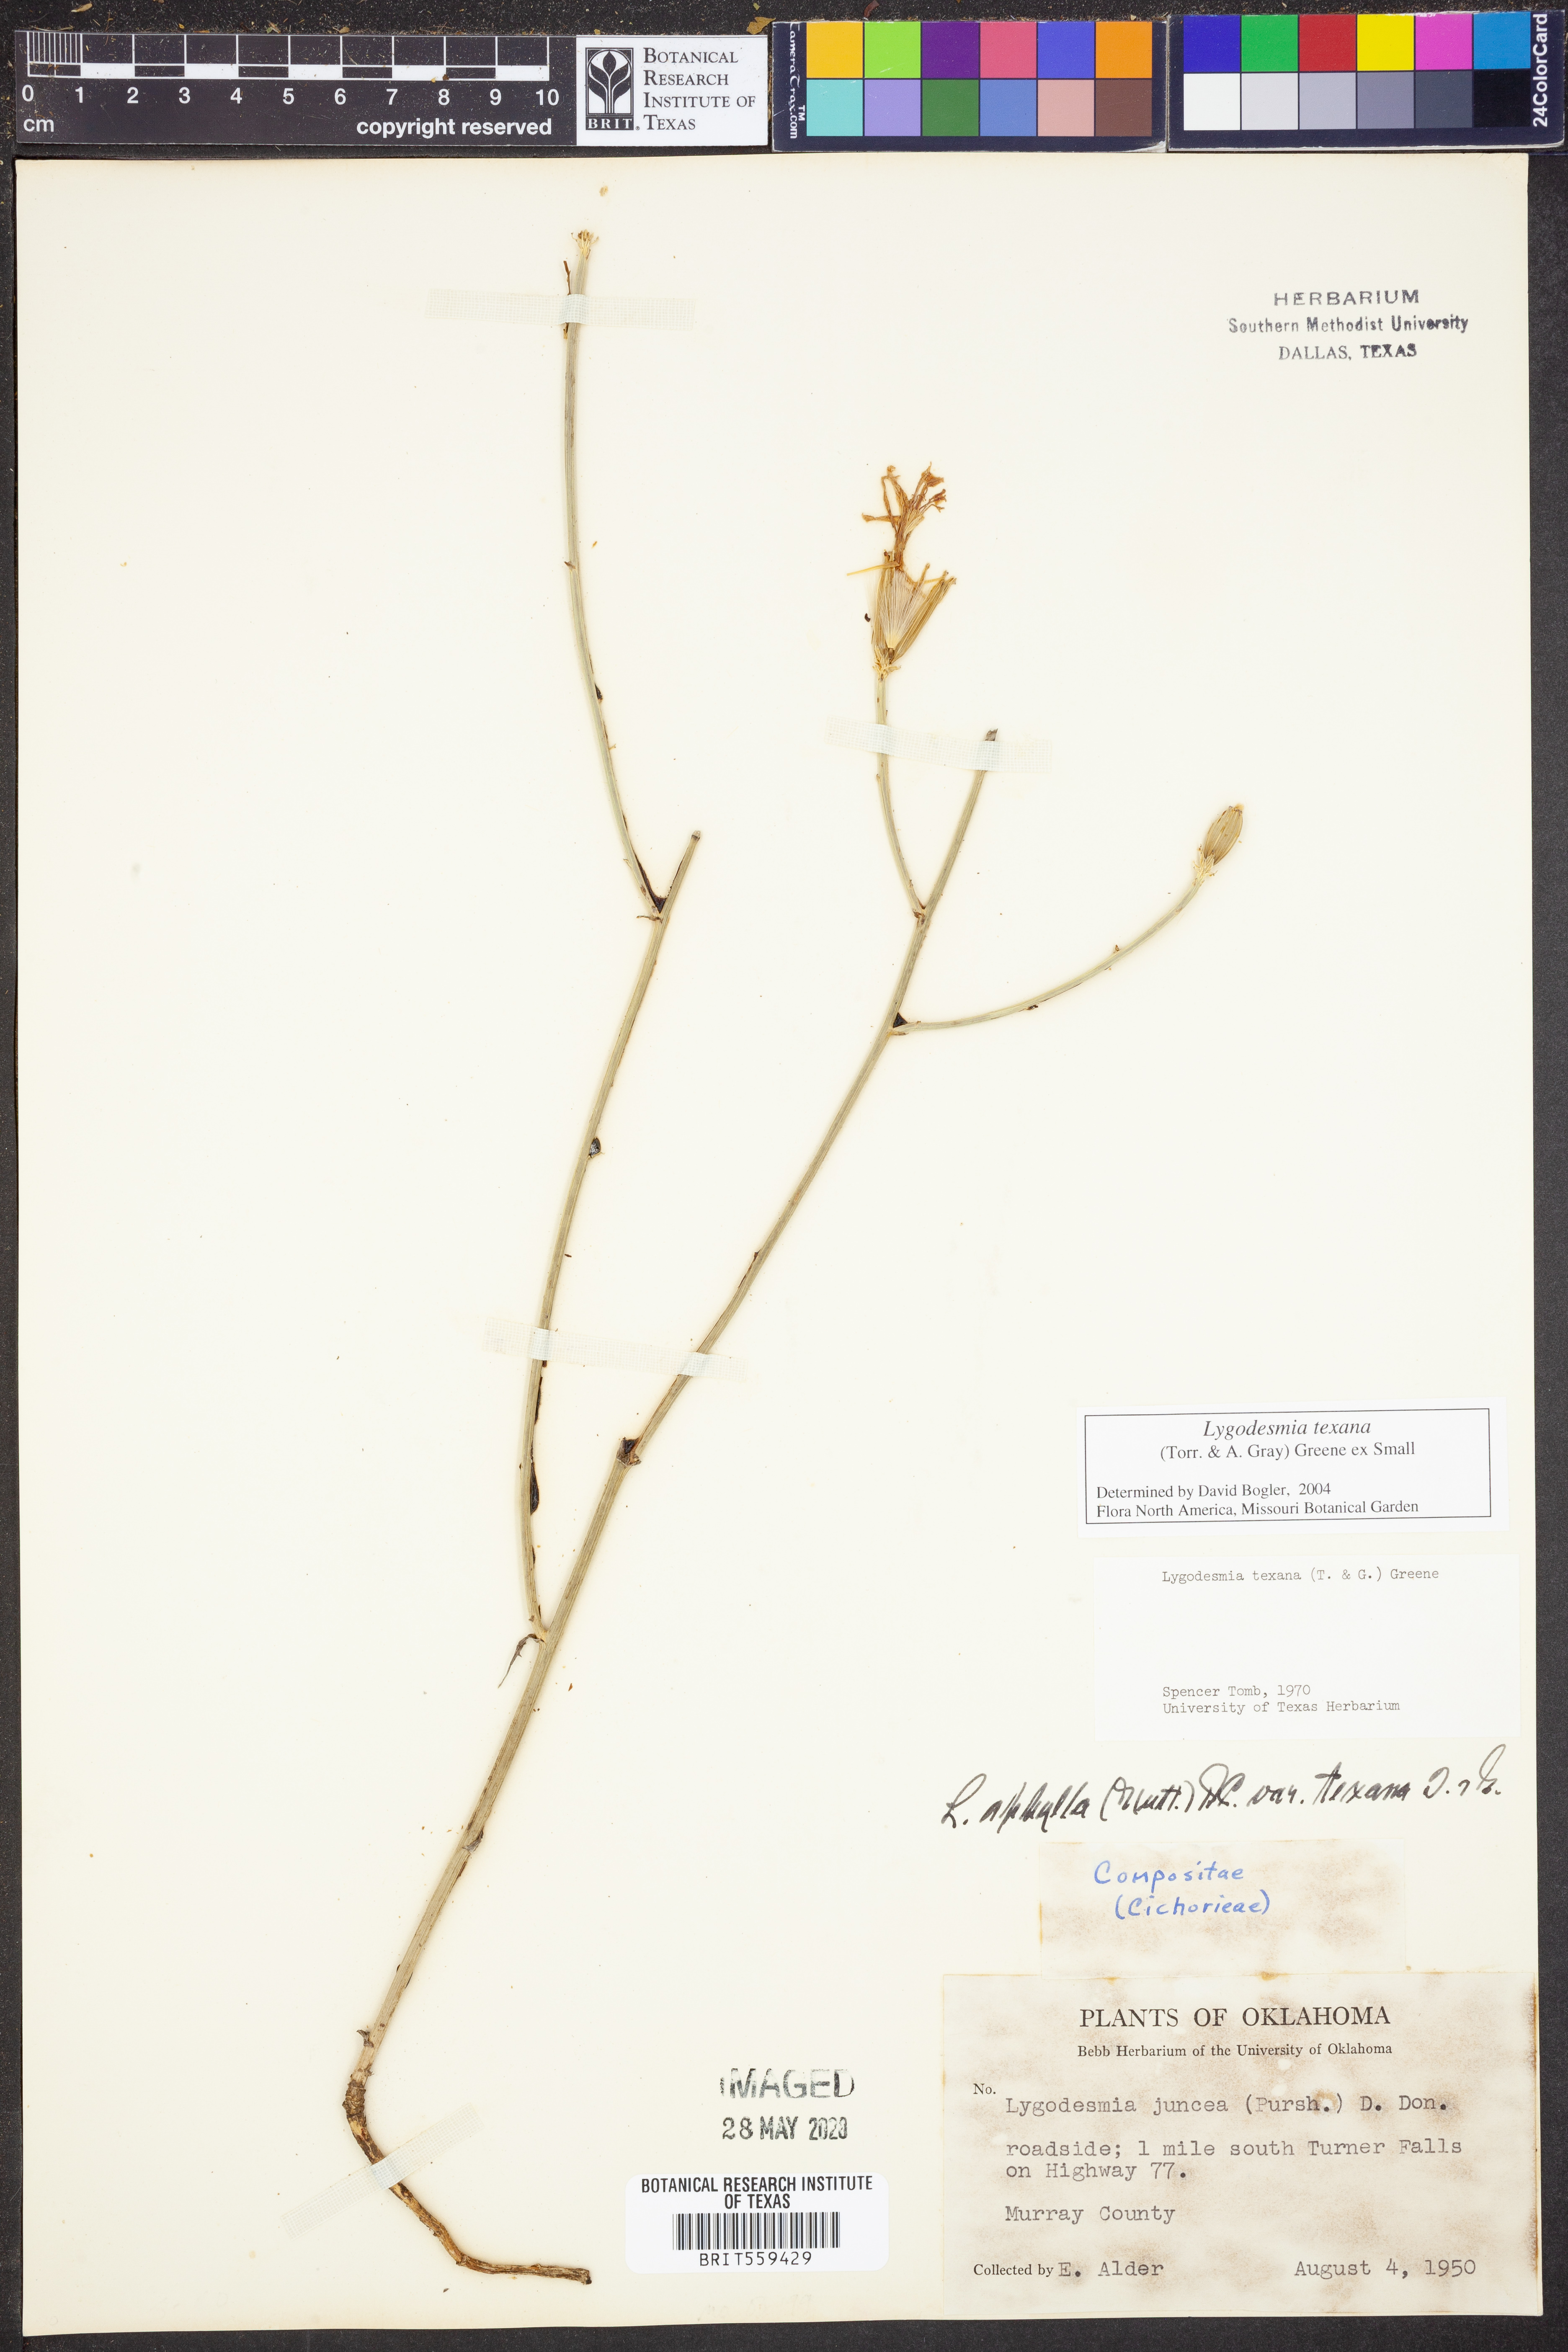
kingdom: Plantae
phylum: Tracheophyta
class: Magnoliopsida
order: Asterales
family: Asteraceae
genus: Lygodesmia
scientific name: Lygodesmia texana
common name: Texas skeleton-plant
